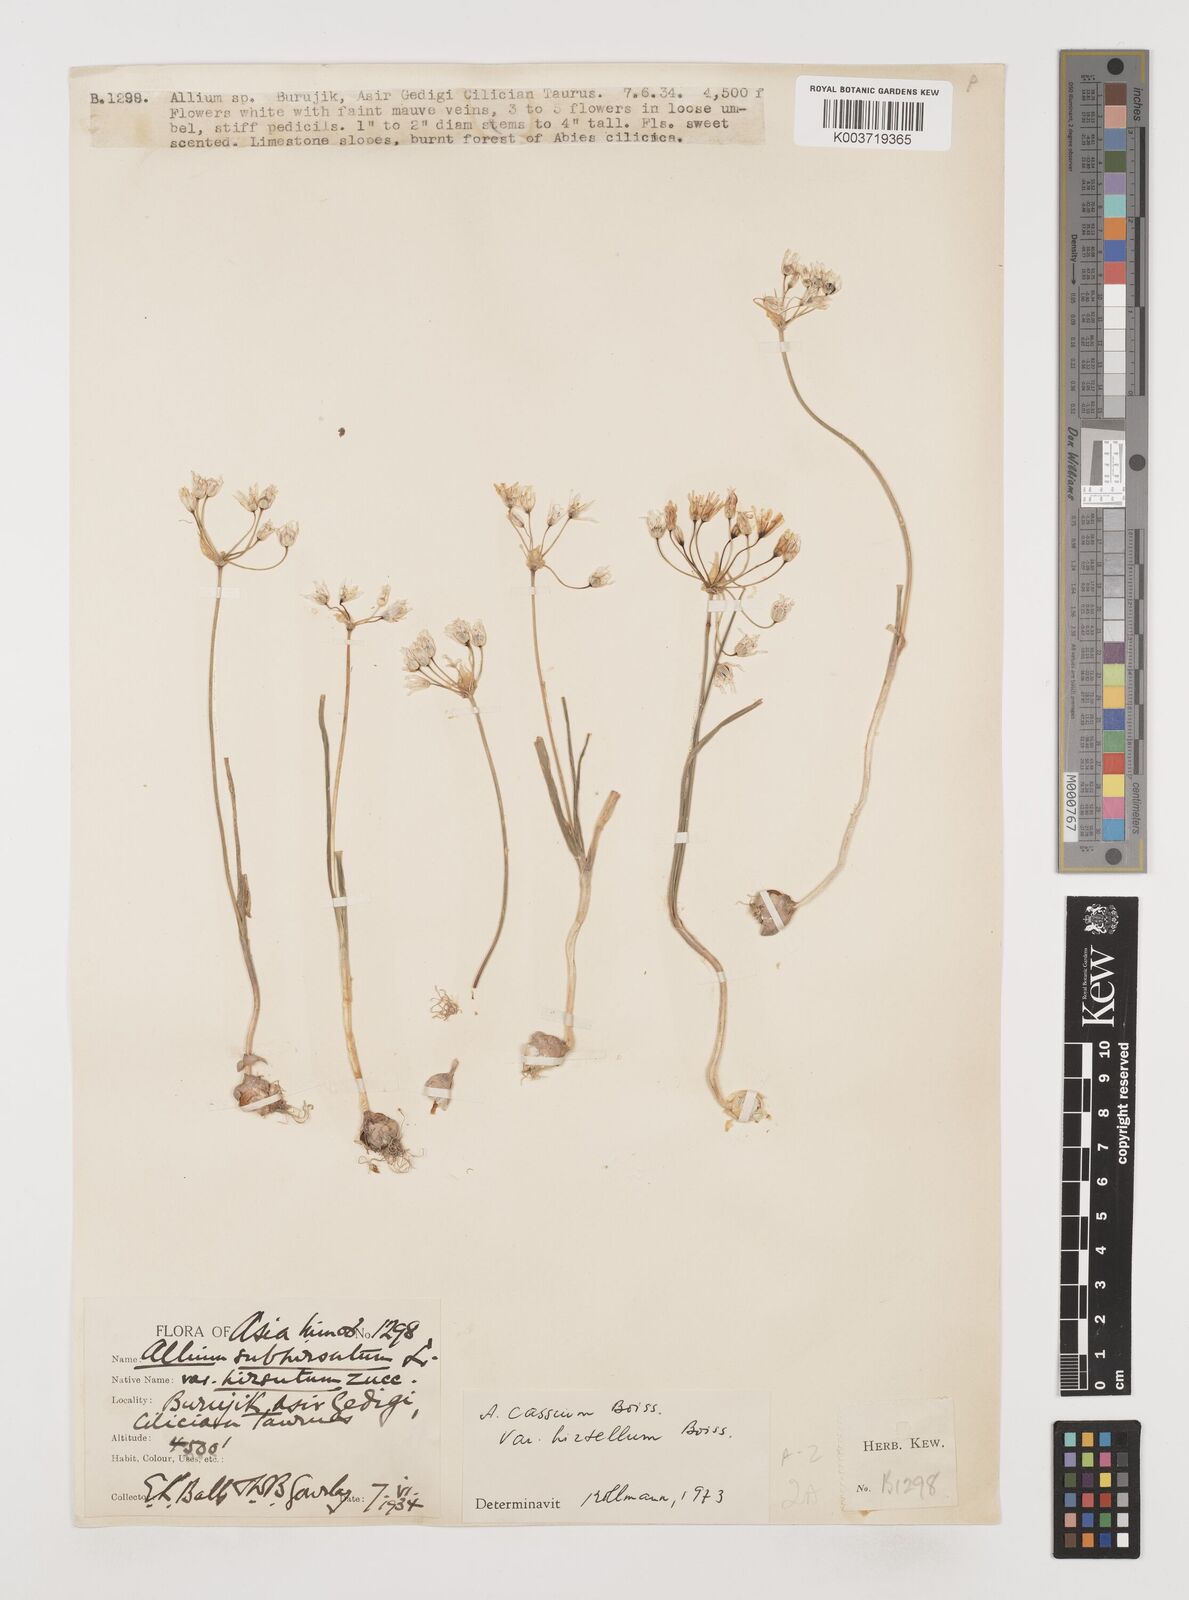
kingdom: Plantae
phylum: Tracheophyta
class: Liliopsida
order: Asparagales
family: Amaryllidaceae
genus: Allium
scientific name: Allium cassium
